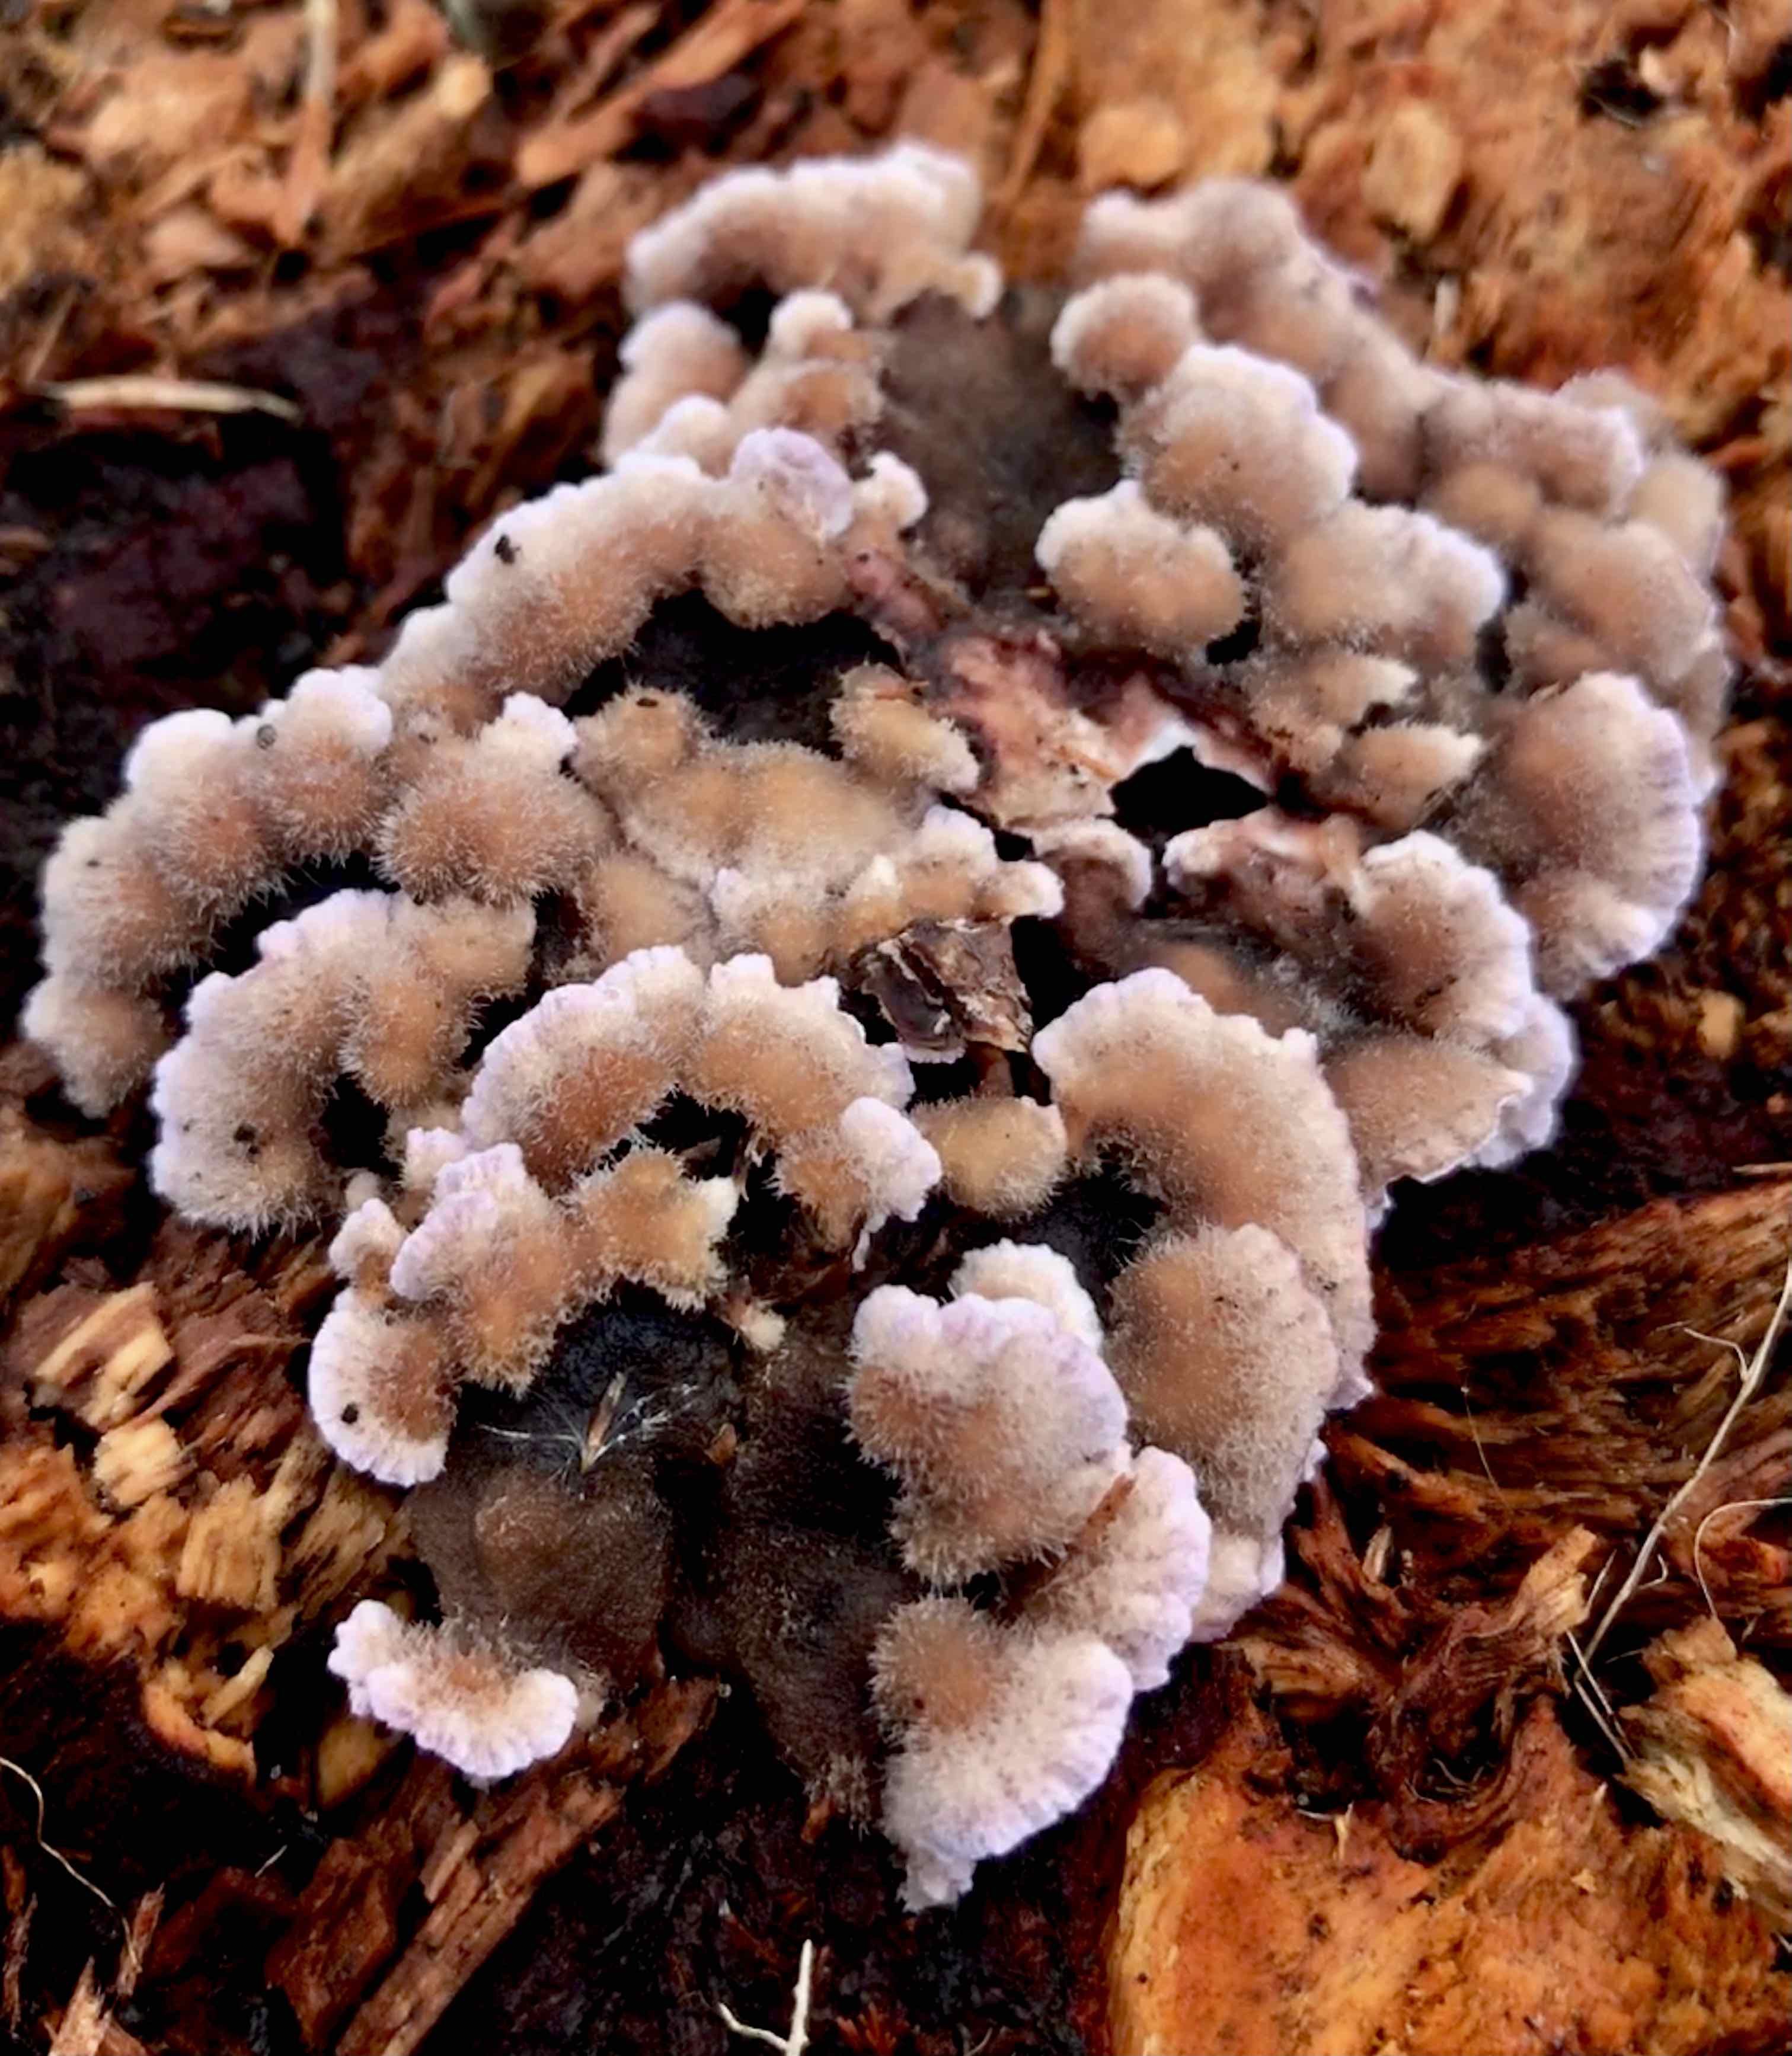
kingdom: Fungi
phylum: Basidiomycota
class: Agaricomycetes
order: Agaricales
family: Cyphellaceae
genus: Chondrostereum
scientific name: Chondrostereum purpureum
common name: purpurlædersvamp
